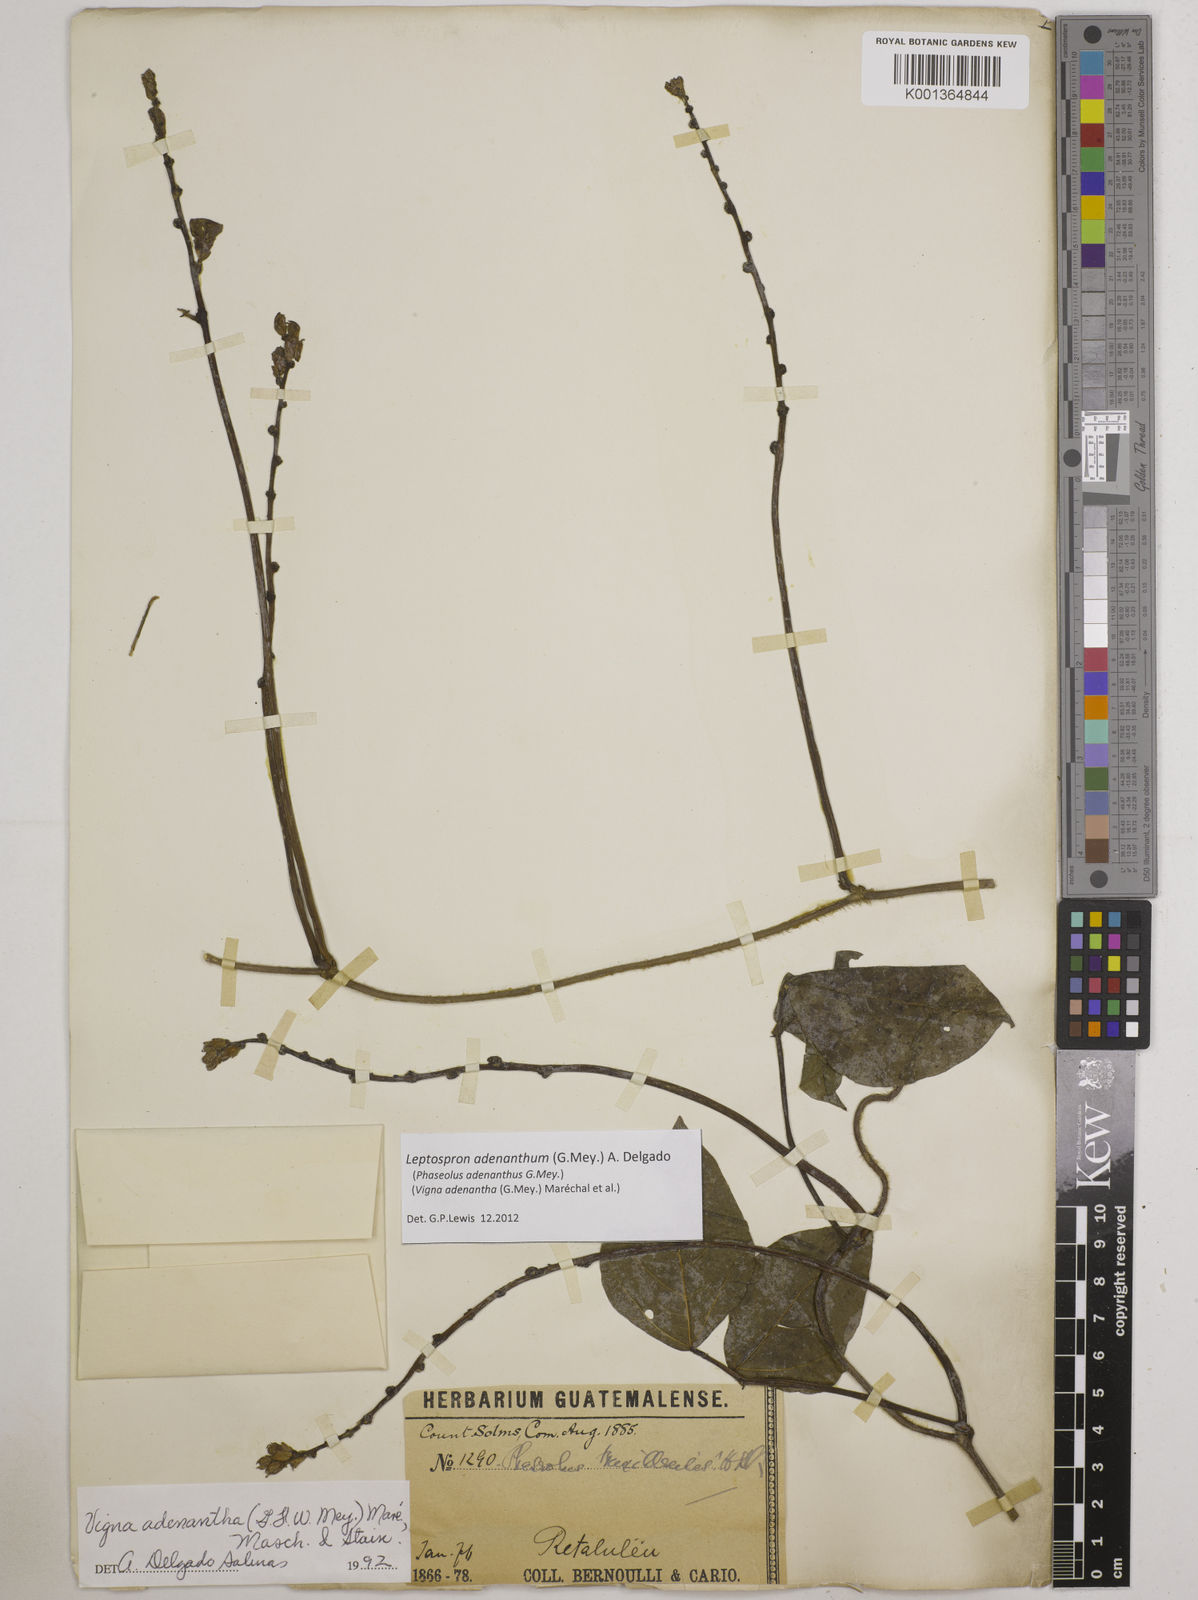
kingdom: Plantae
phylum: Tracheophyta
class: Magnoliopsida
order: Fabales
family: Fabaceae
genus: Leptospron
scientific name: Leptospron adenanthum
